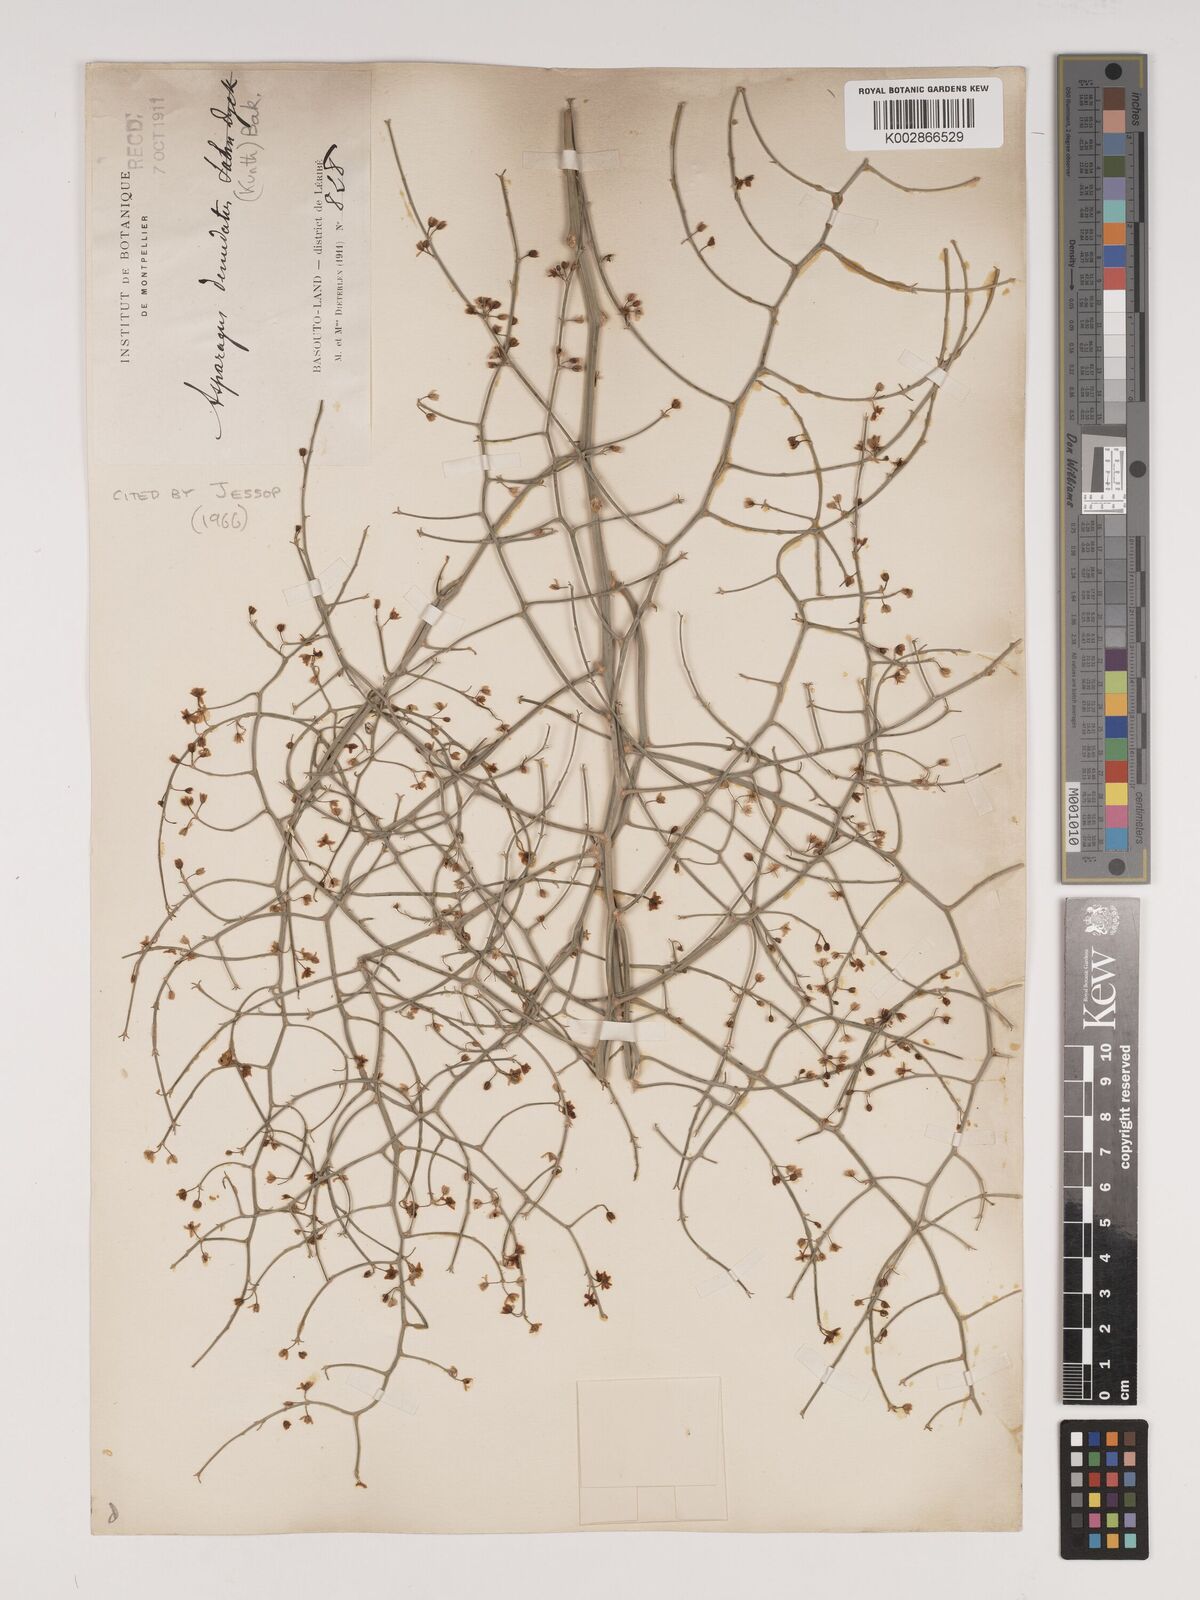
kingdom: Plantae
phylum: Tracheophyta
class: Liliopsida
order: Asparagales
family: Asparagaceae
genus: Asparagus
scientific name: Asparagus denudatus
